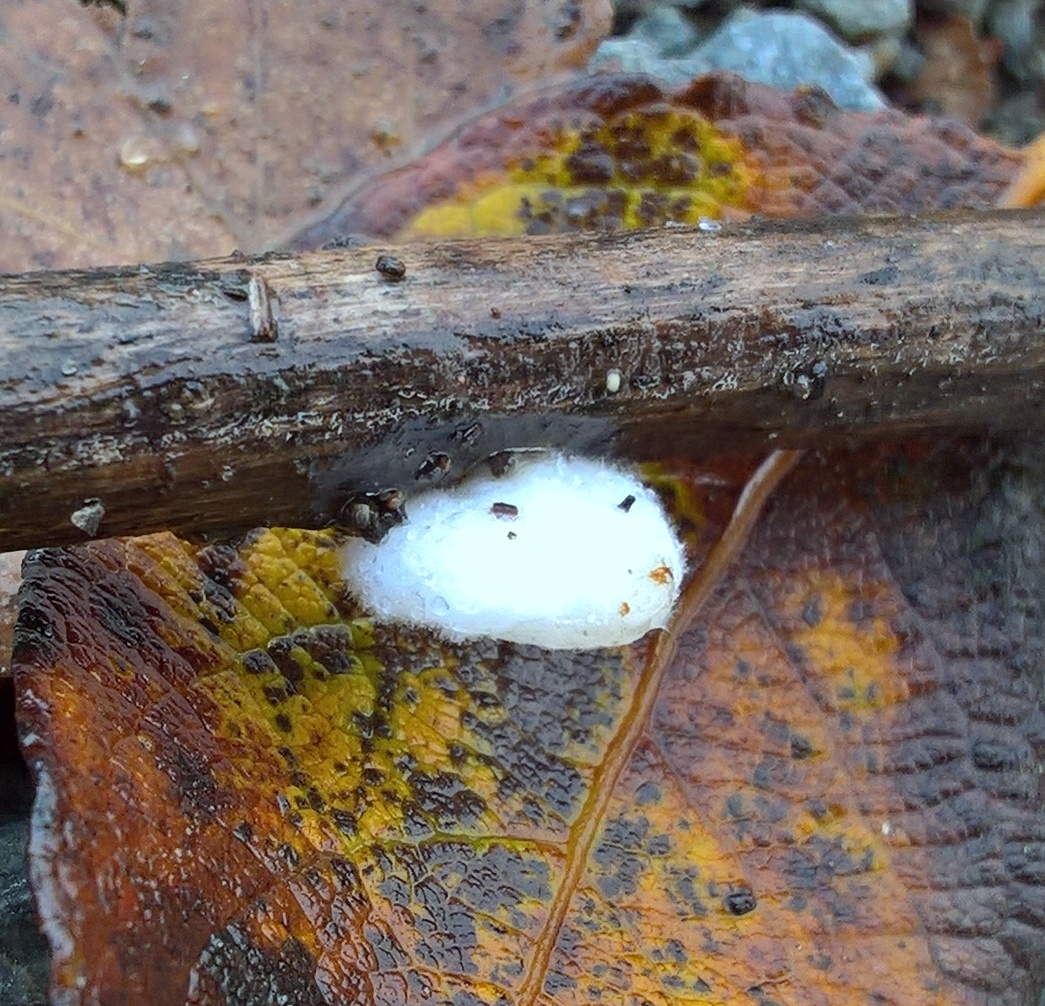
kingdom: Fungi
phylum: Basidiomycota
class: Agaricomycetes
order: Agaricales
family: Entolomataceae
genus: Clitopilus
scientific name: Clitopilus hobsonii
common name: Miller's oysterling
